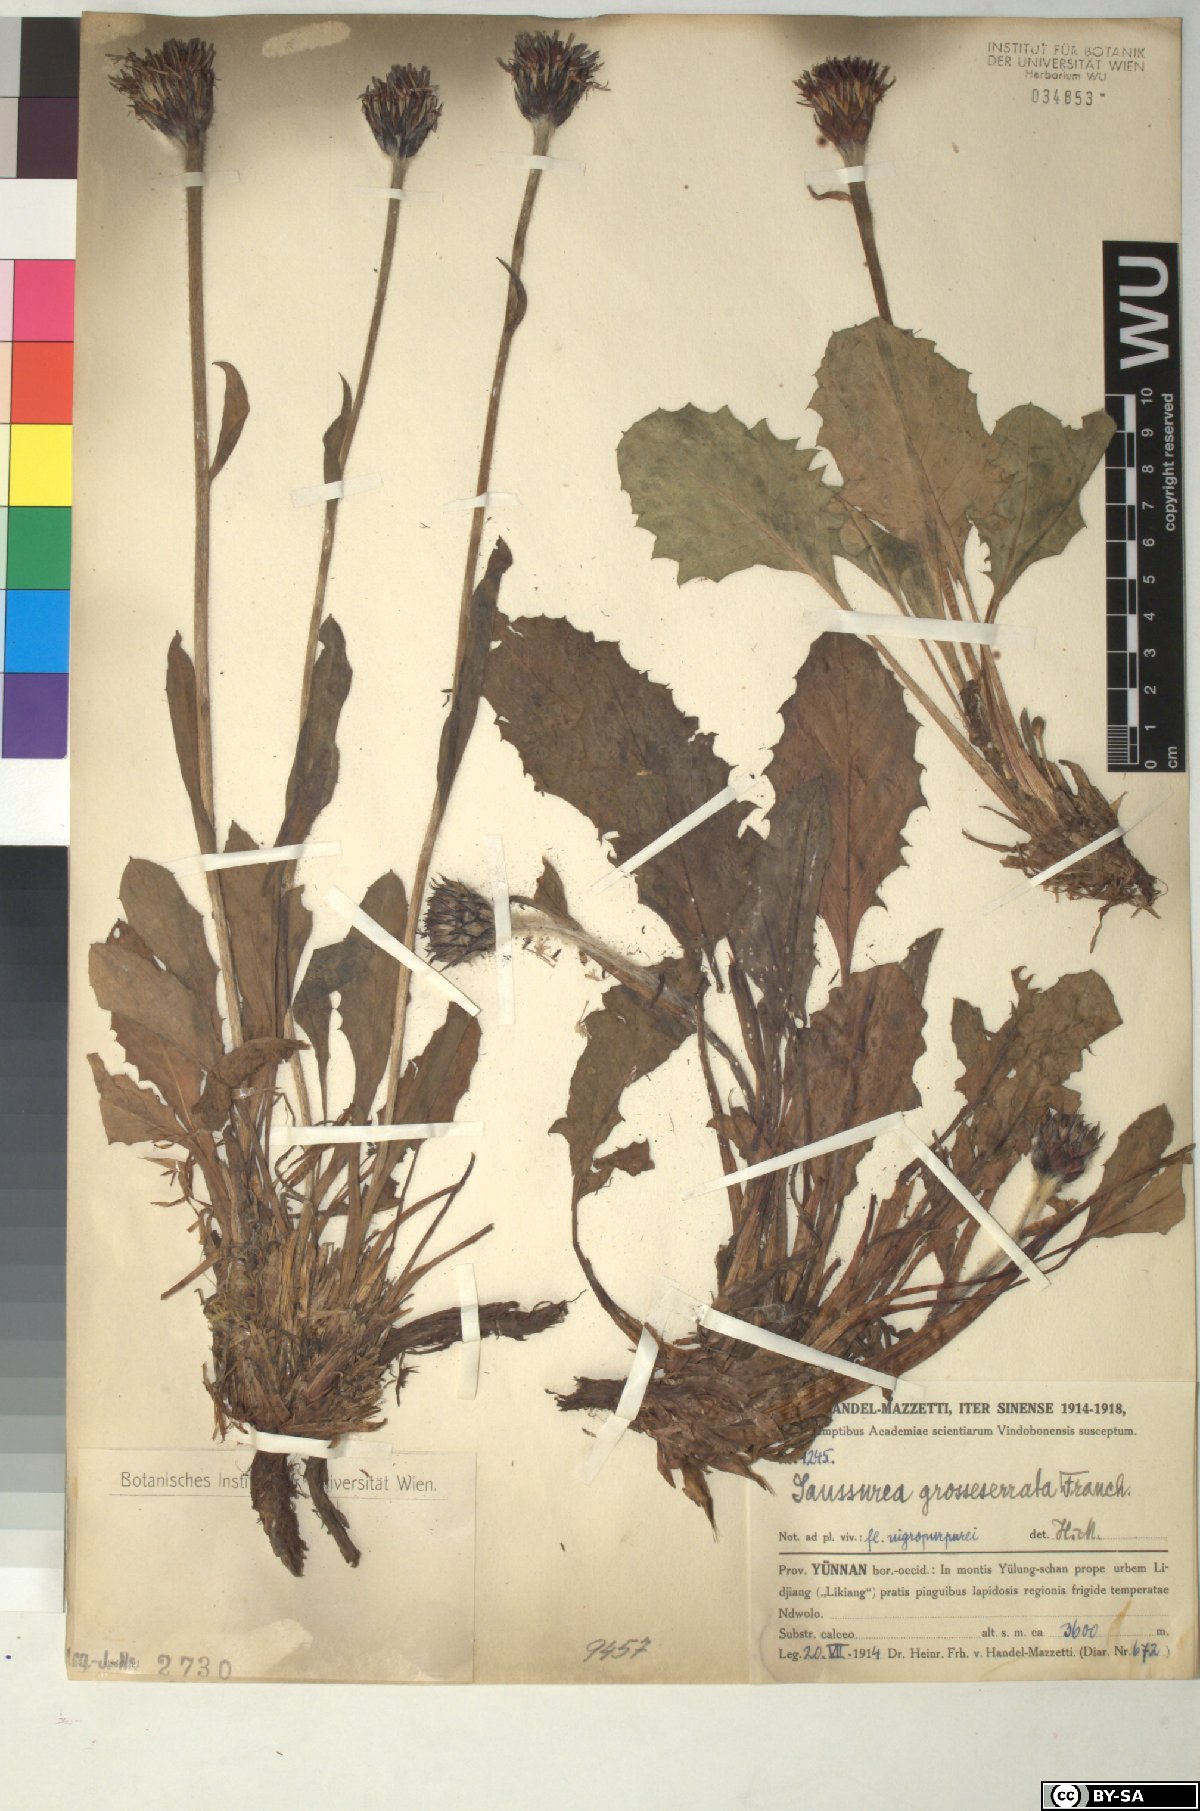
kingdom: Plantae
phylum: Tracheophyta
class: Magnoliopsida
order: Asterales
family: Asteraceae
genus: Saussurea
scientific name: Saussurea grosseserrata
